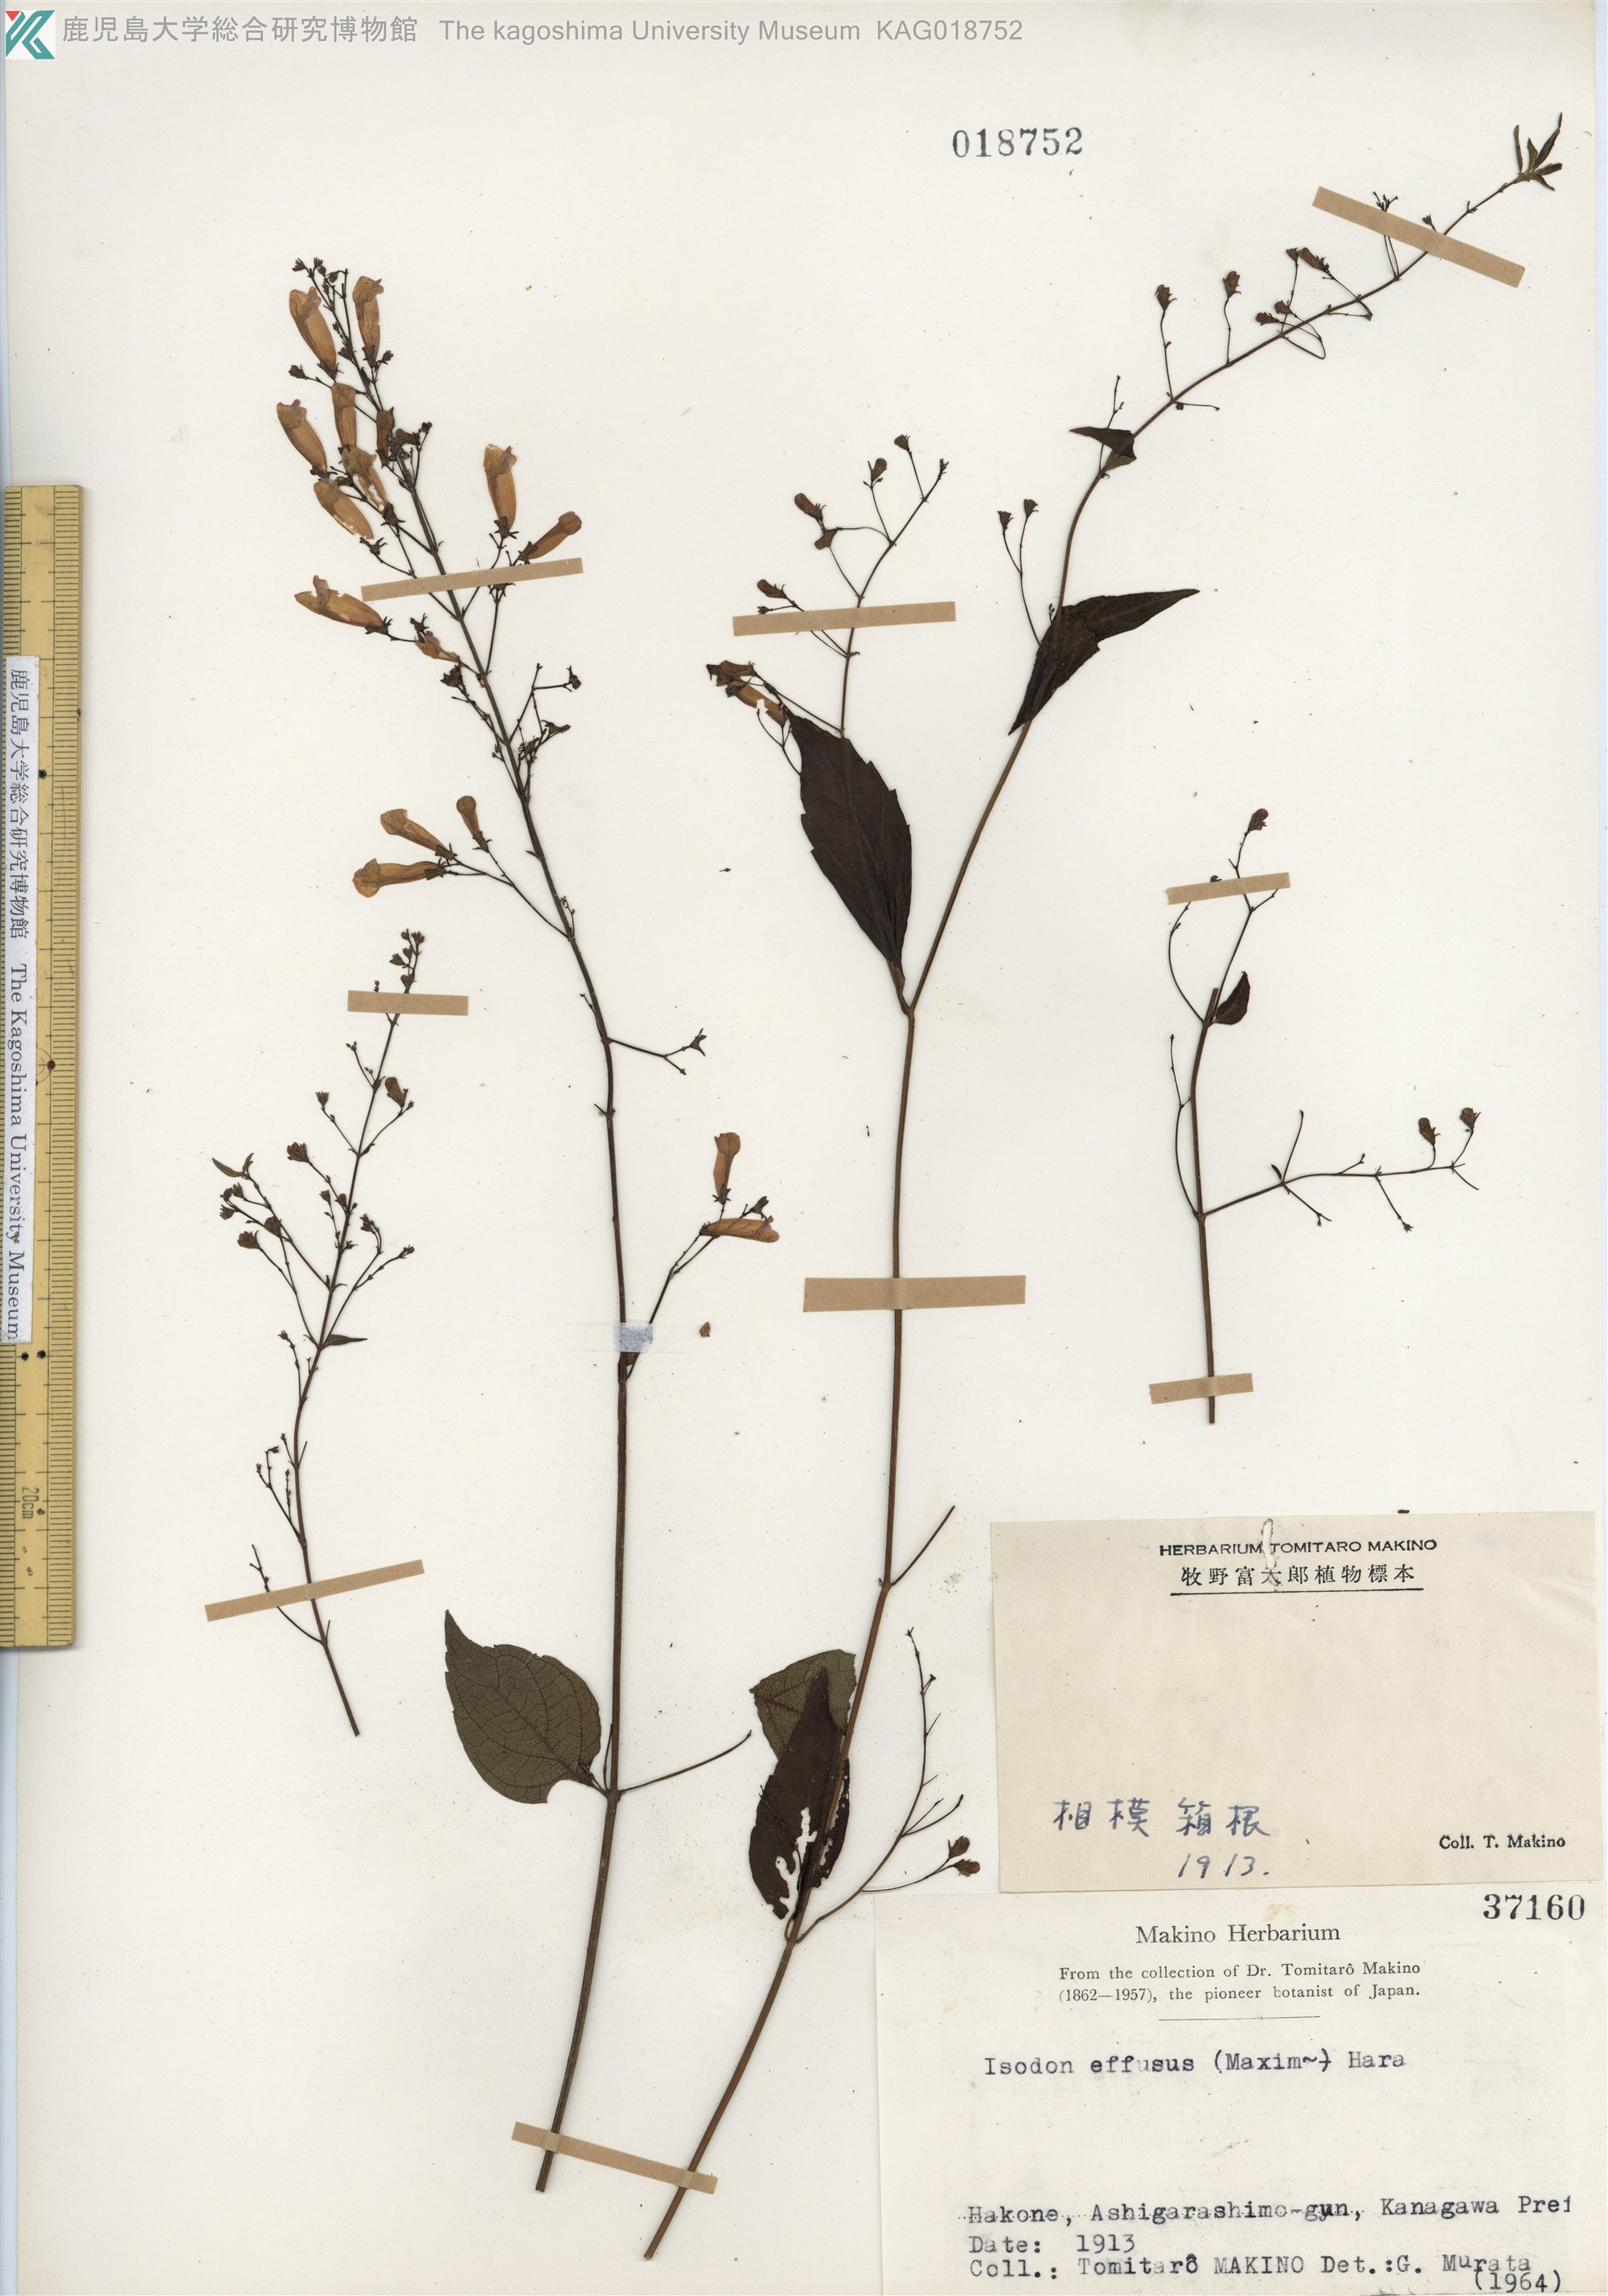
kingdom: Plantae
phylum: Tracheophyta
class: Magnoliopsida
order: Lamiales
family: Lamiaceae
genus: Isodon
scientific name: Isodon effusus
